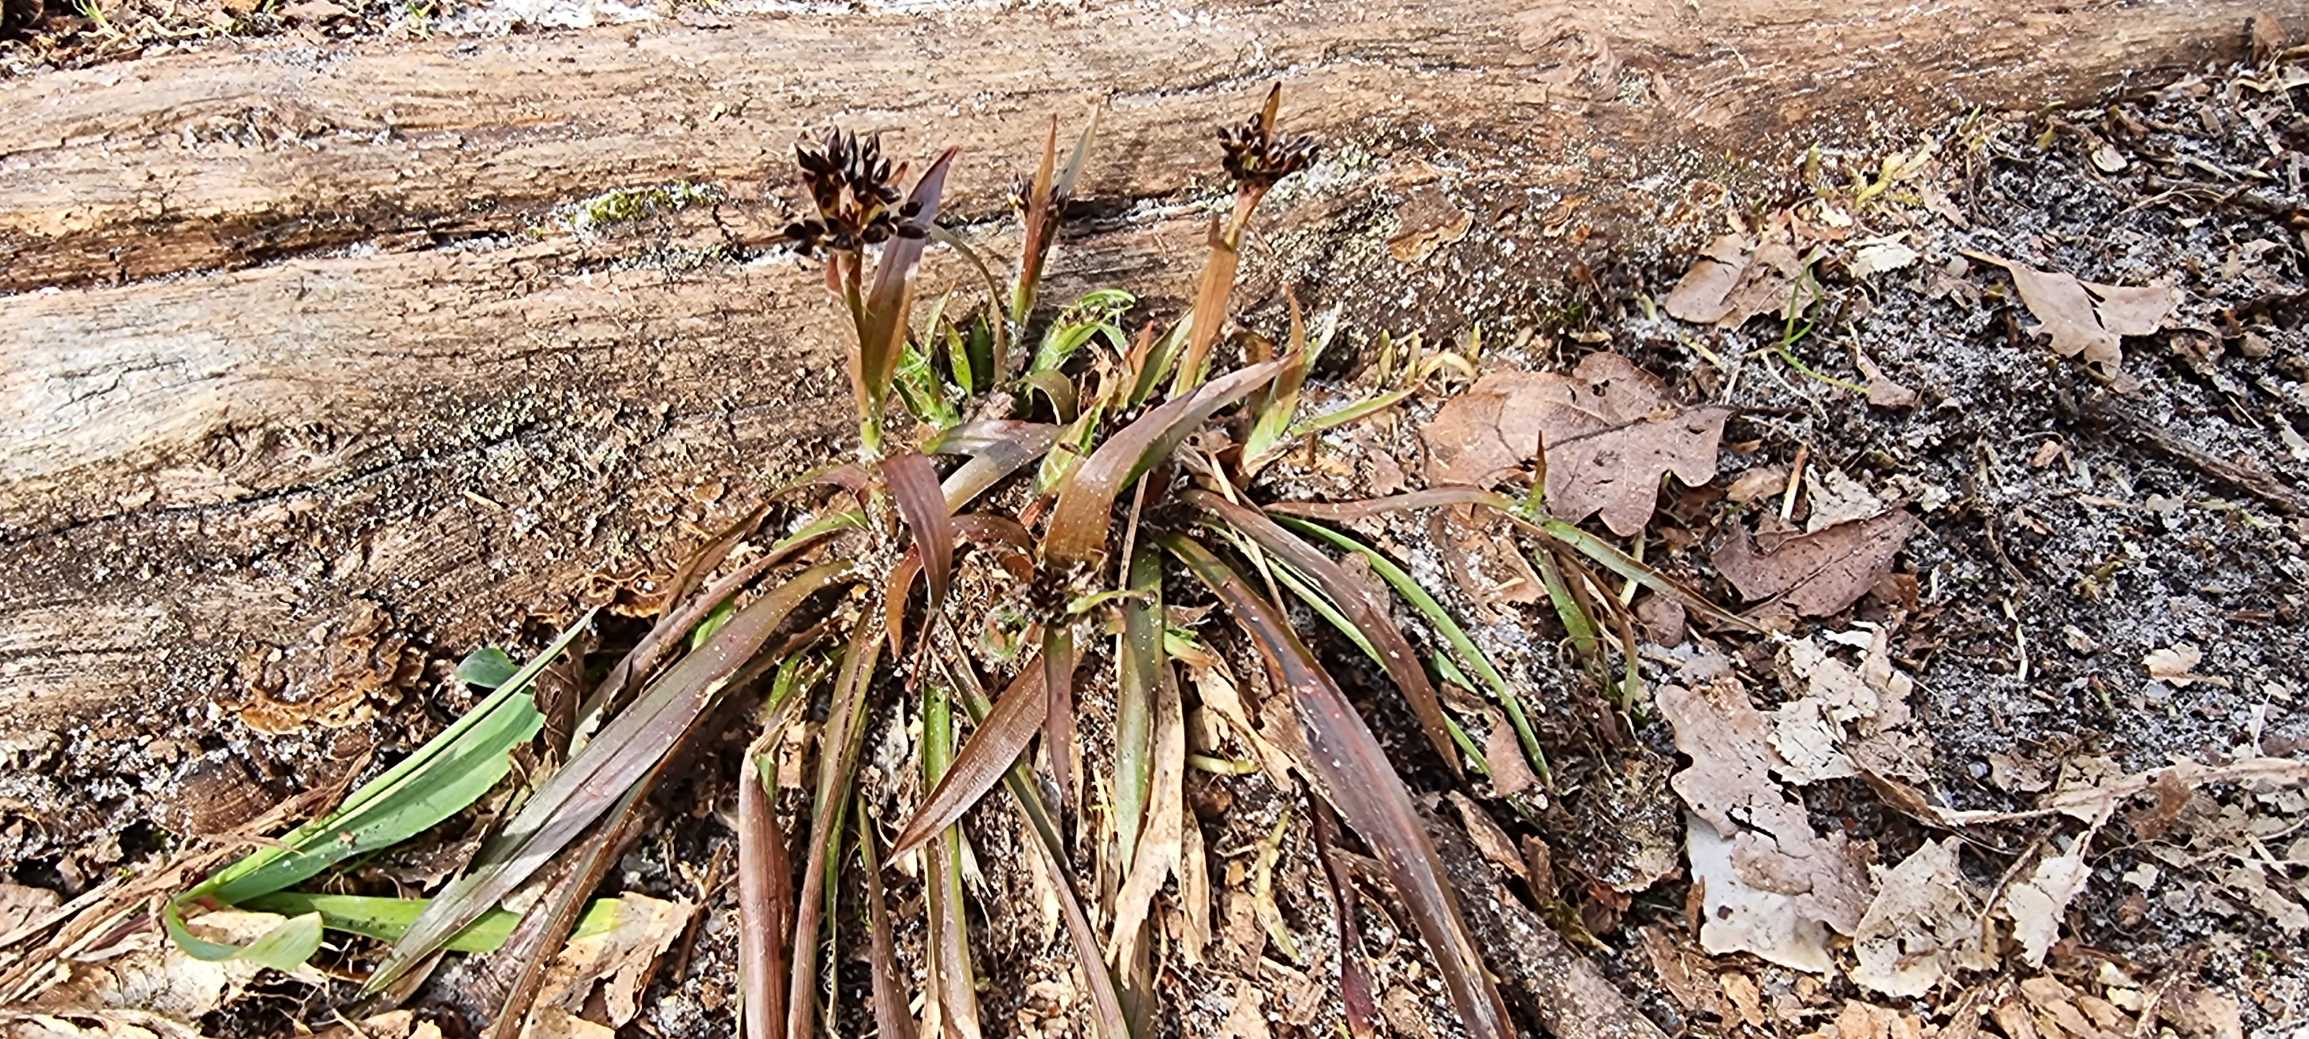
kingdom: Plantae
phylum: Tracheophyta
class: Liliopsida
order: Poales
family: Juncaceae
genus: Luzula
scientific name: Luzula pilosa
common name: Håret frytle
